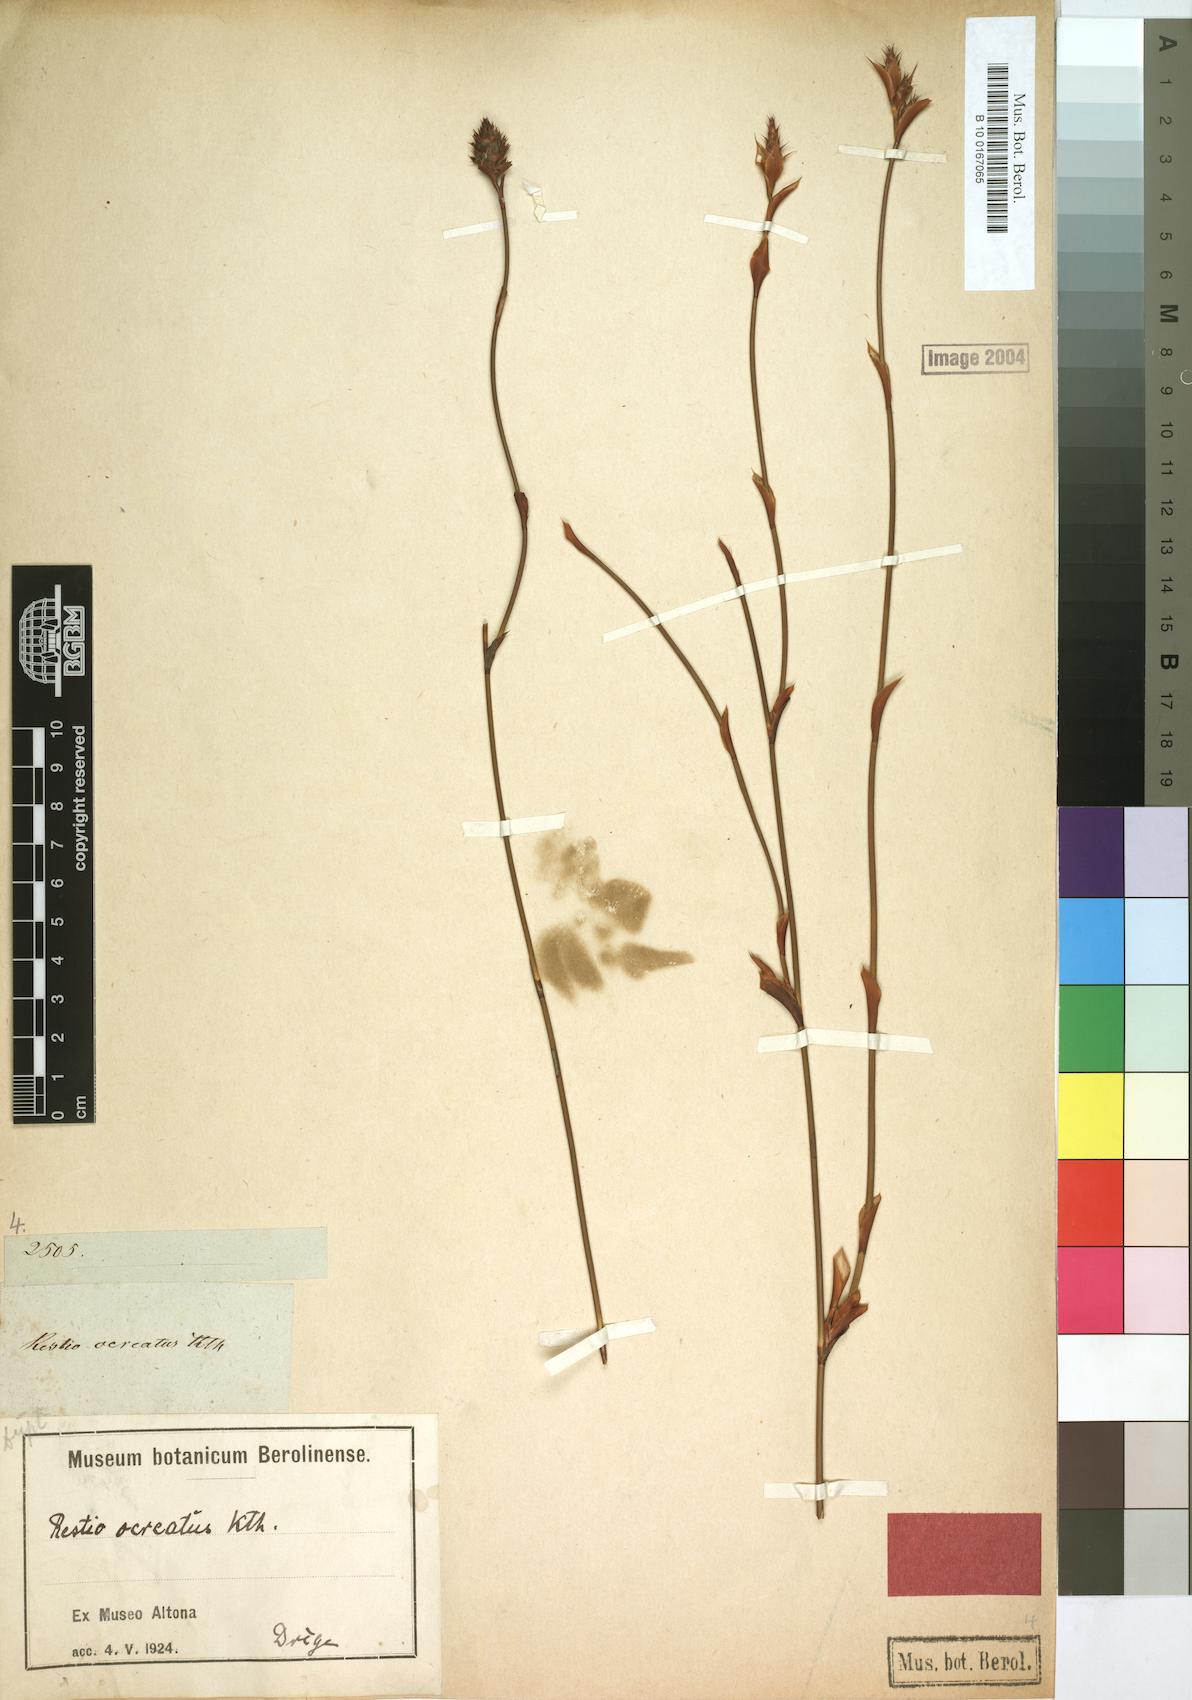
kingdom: Plantae
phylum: Tracheophyta
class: Liliopsida
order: Poales
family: Restionaceae
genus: Restio
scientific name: Restio ocreatus
